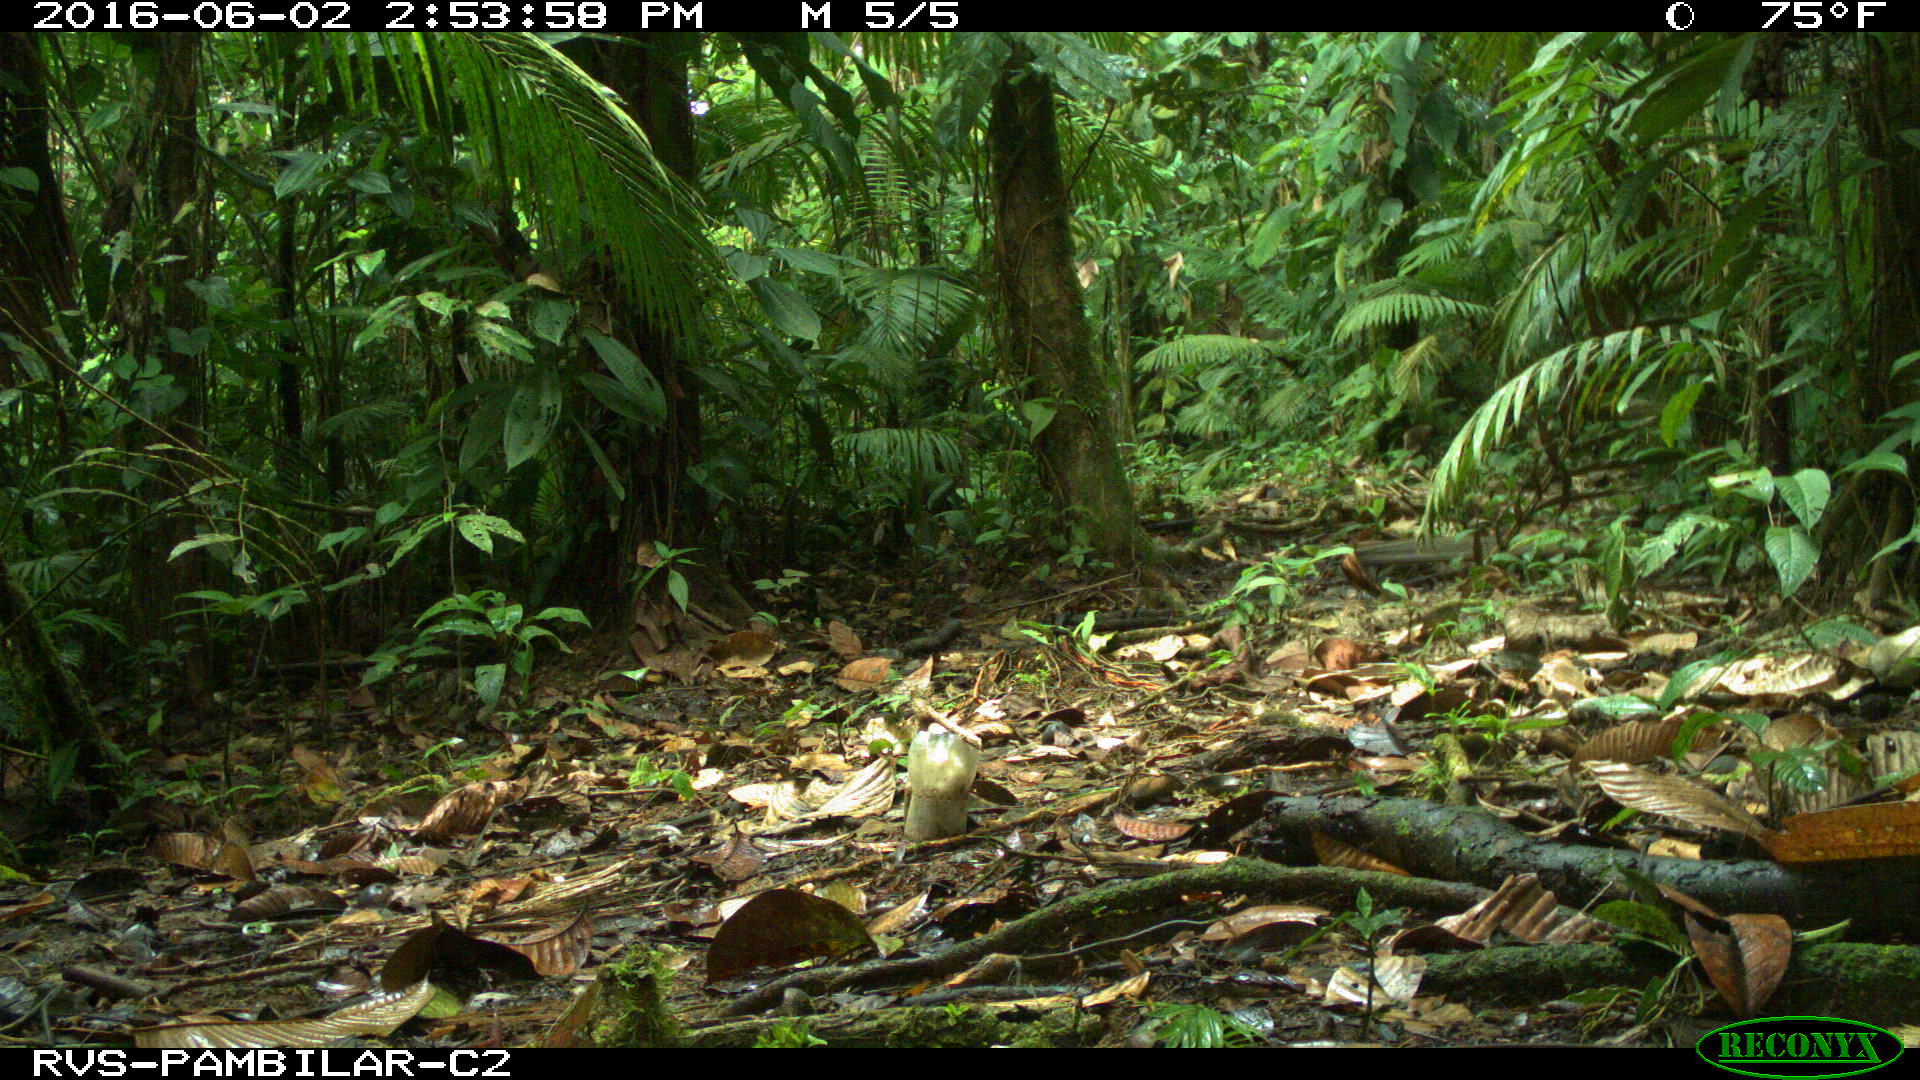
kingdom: Animalia
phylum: Chordata
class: Mammalia
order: Rodentia
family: Dasyproctidae
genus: Dasyprocta
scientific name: Dasyprocta punctata
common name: Central american agouti
